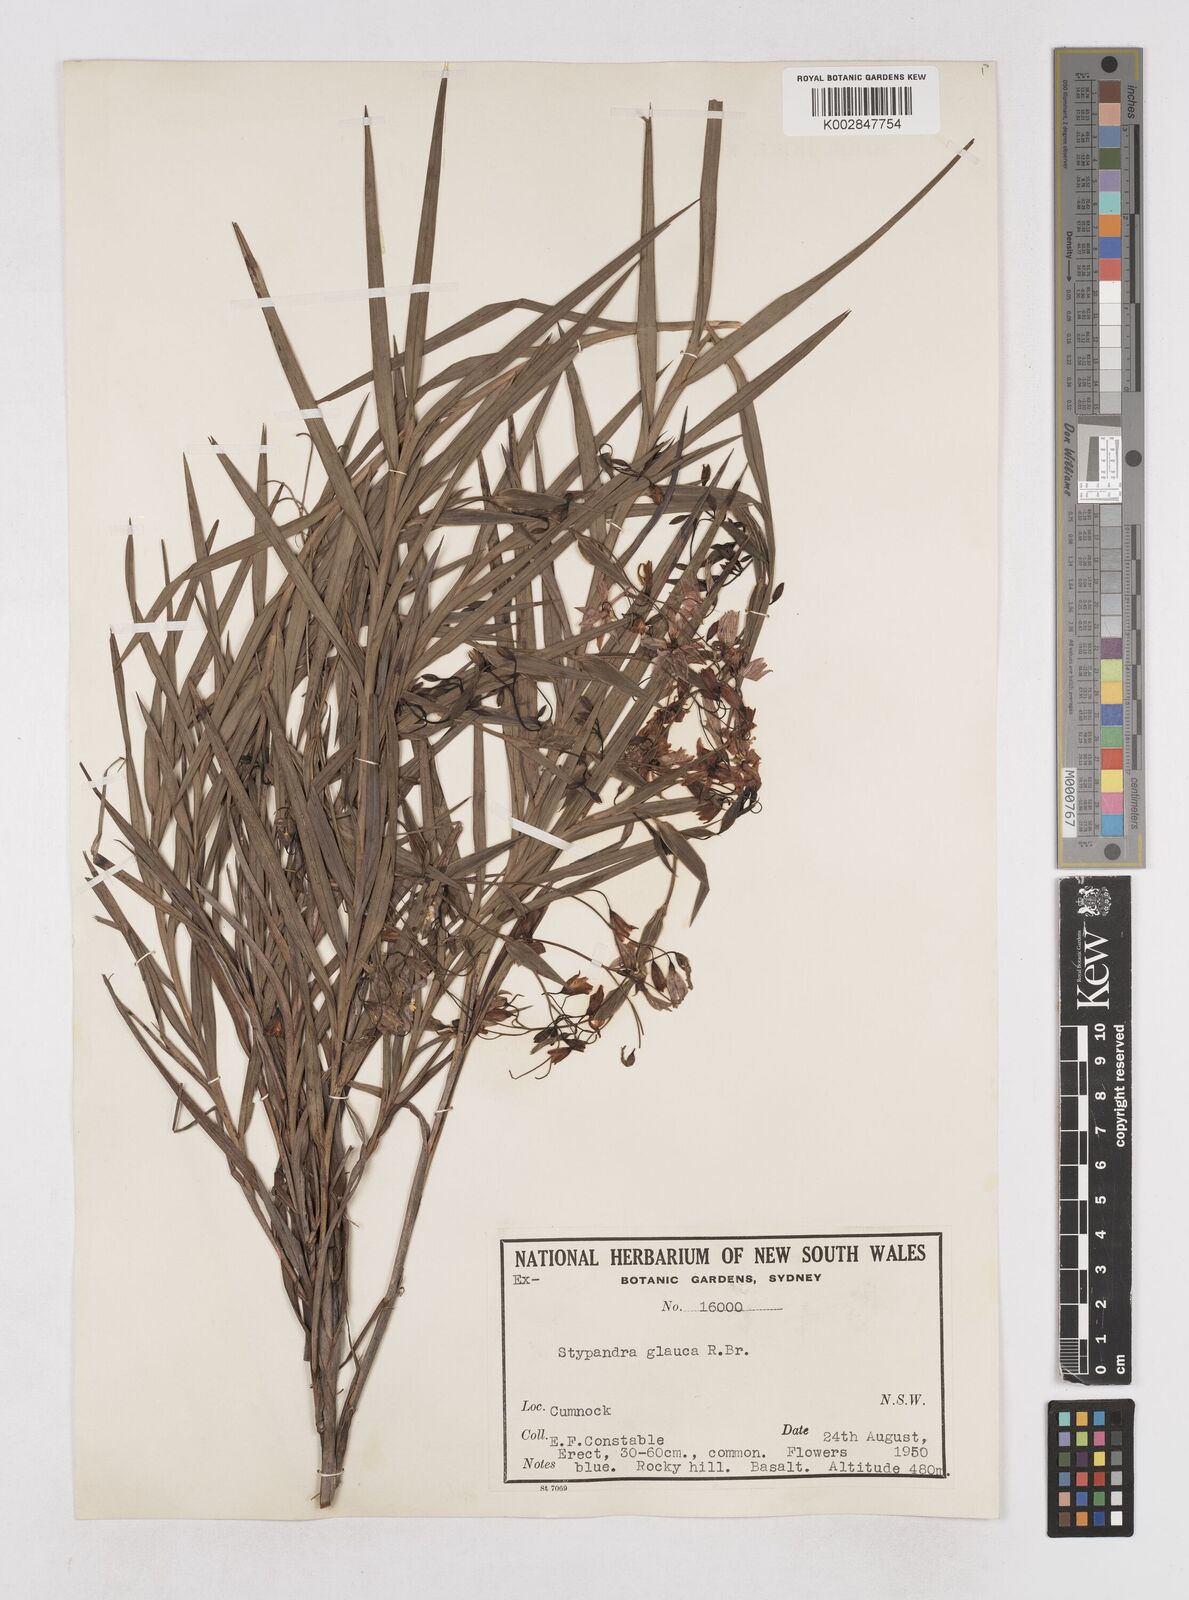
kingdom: Plantae
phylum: Tracheophyta
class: Liliopsida
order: Asparagales
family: Asphodelaceae
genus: Stypandra
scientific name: Stypandra glauca
